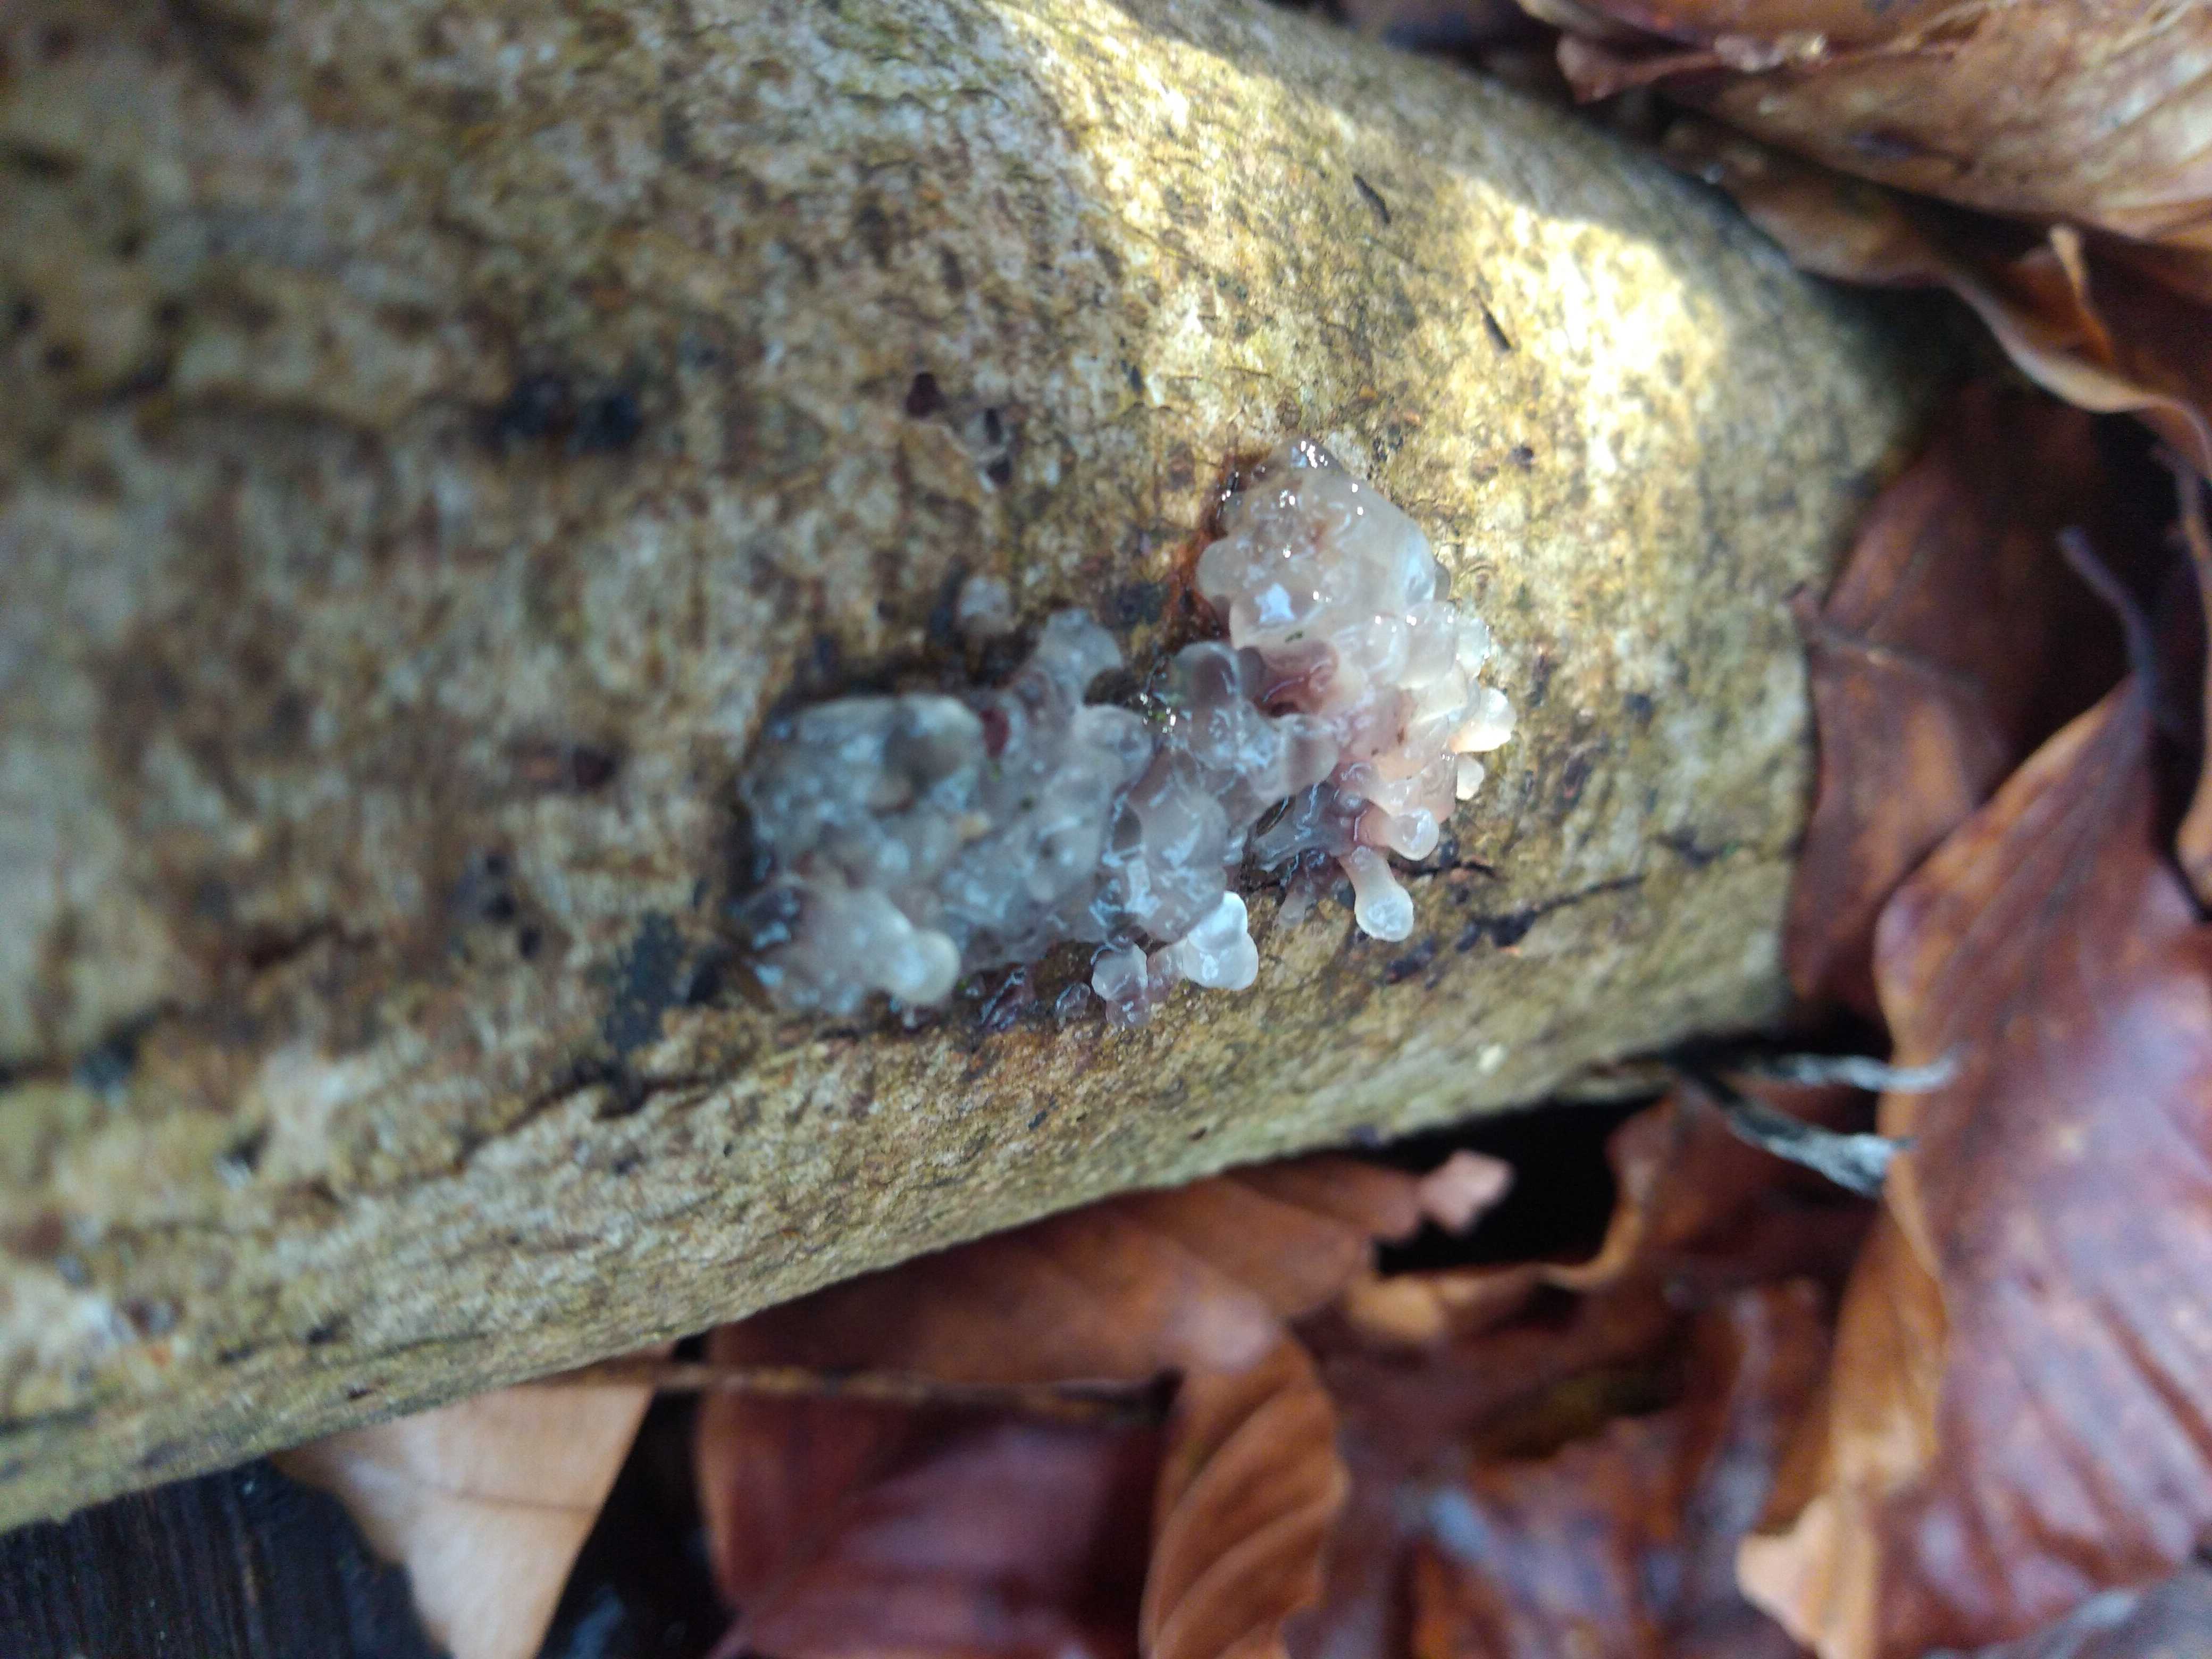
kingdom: Fungi
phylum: Basidiomycota
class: Agaricomycetes
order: Auriculariales
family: Hyaloriaceae
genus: Myxarium
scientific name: Myxarium nucleatum
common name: klar bævretop
